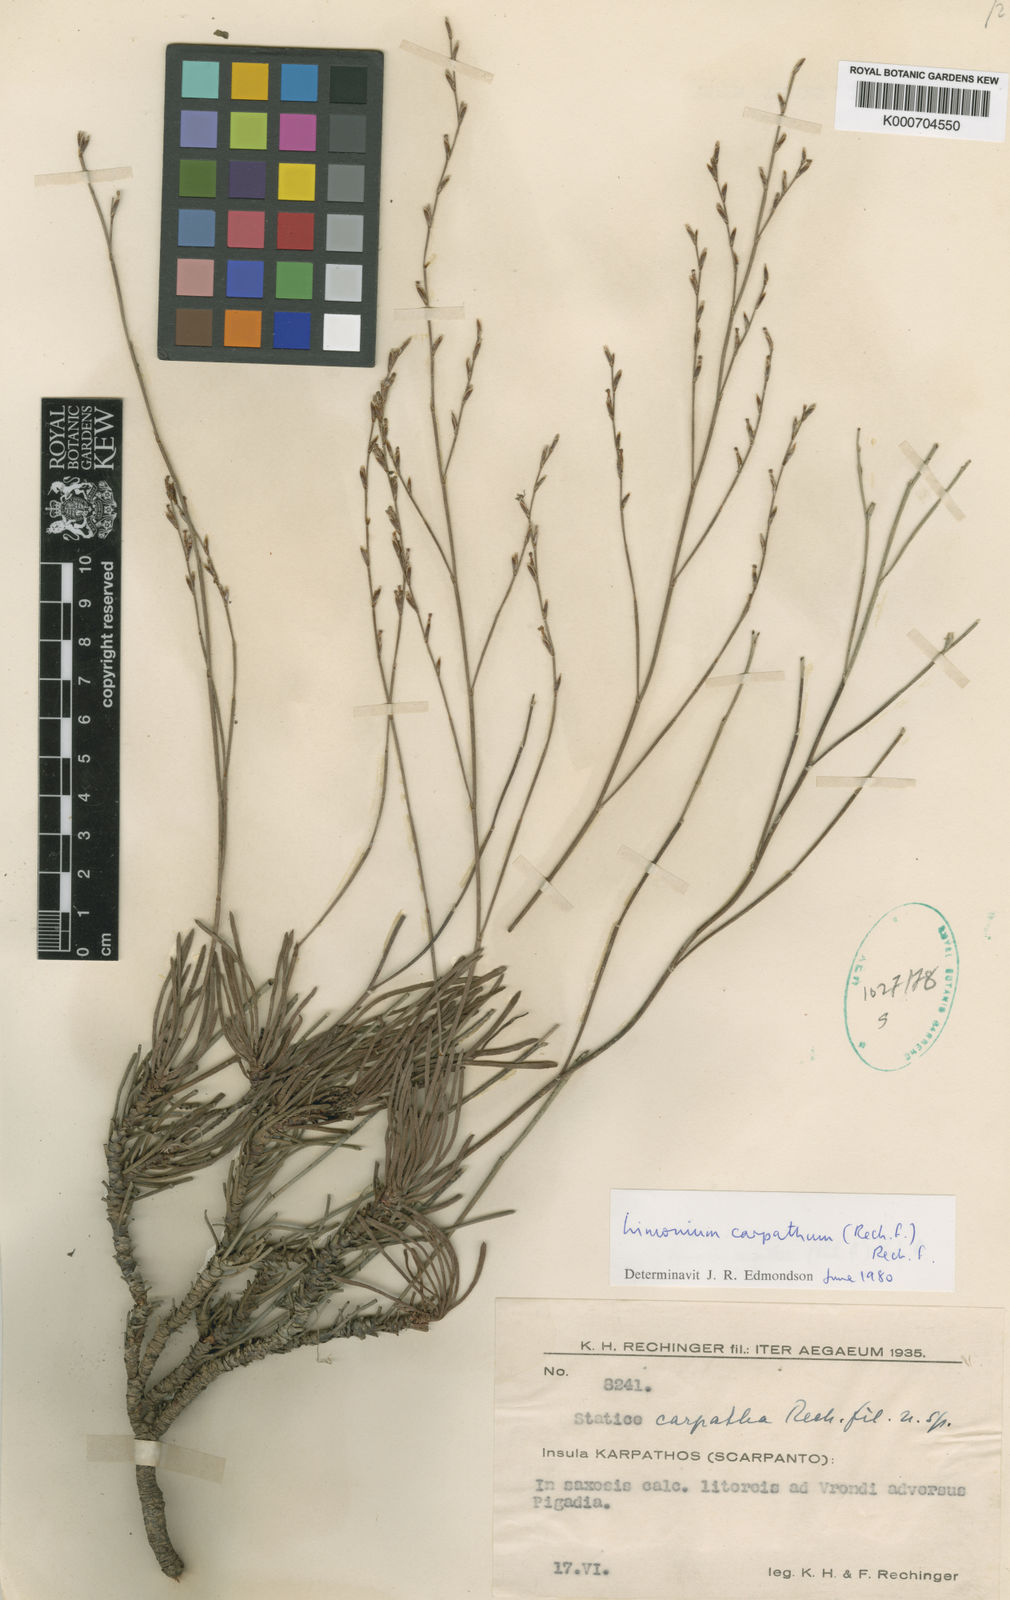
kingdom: Plantae
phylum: Tracheophyta
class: Magnoliopsida
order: Caryophyllales
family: Plumbaginaceae
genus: Limonium
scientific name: Limonium carpathum
